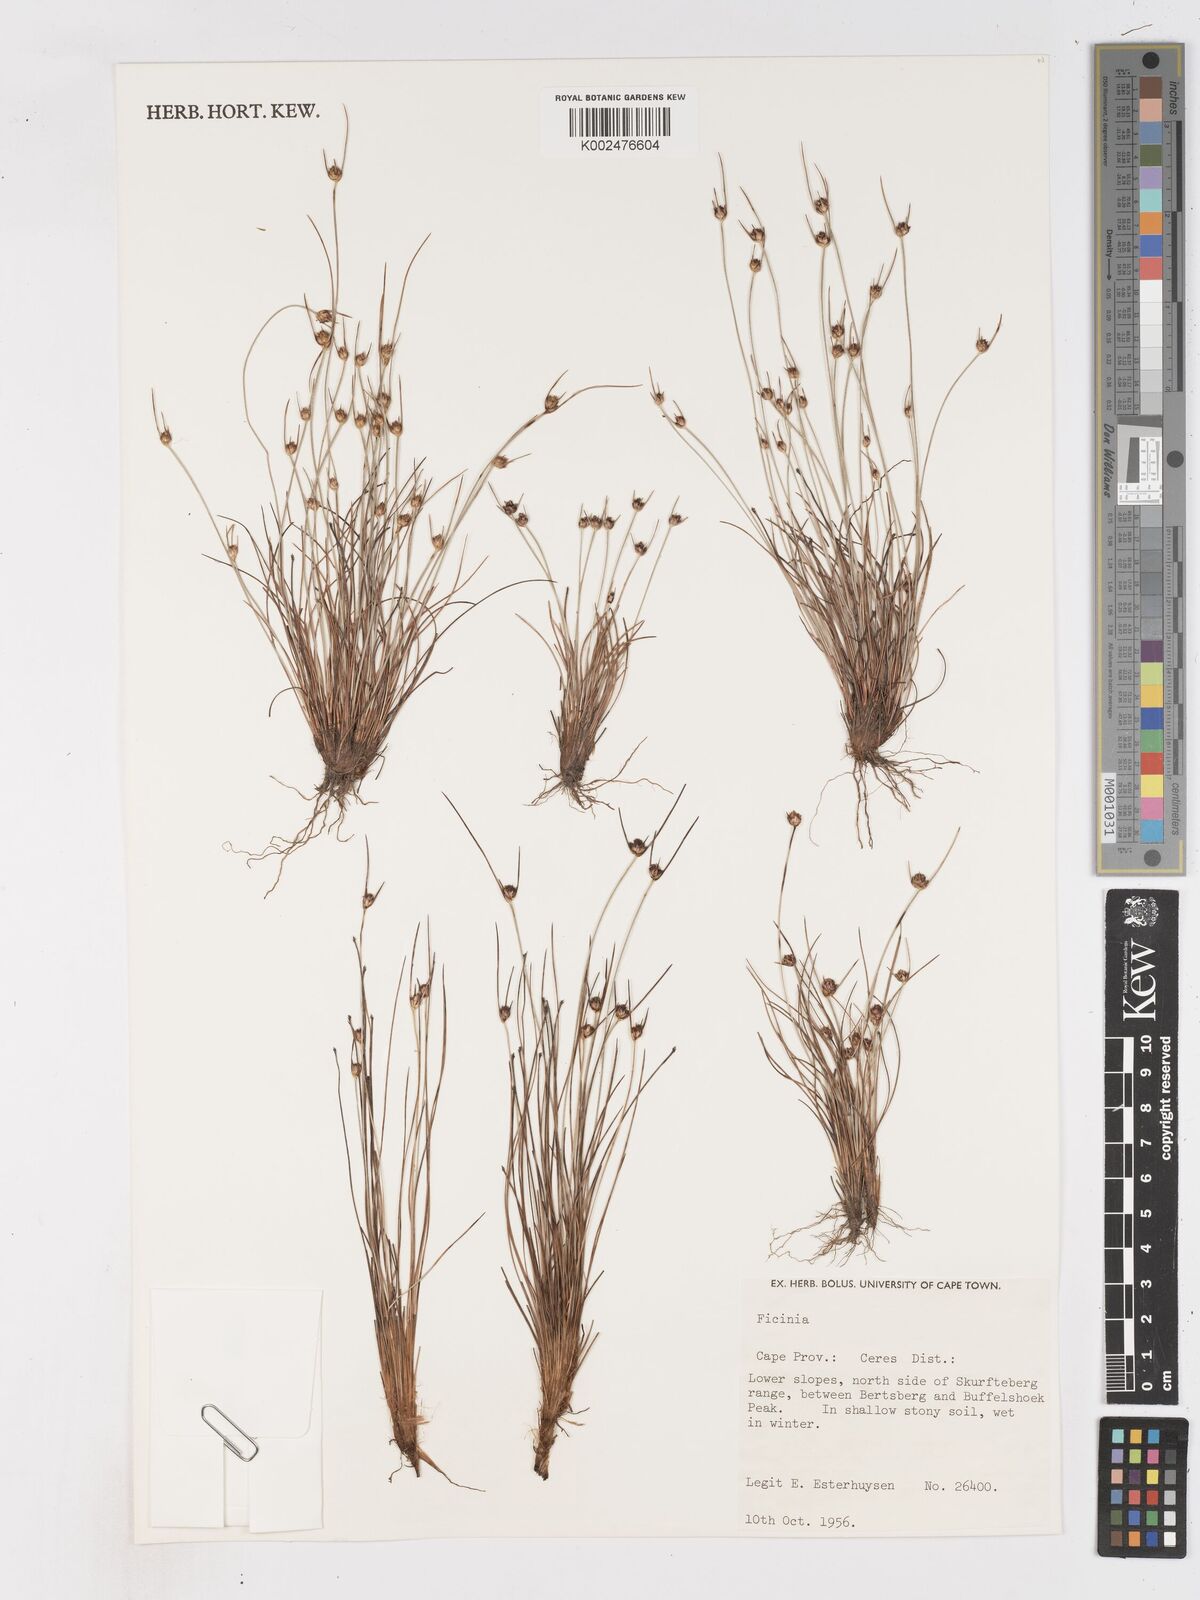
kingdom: Plantae
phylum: Tracheophyta
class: Liliopsida
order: Poales
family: Cyperaceae
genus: Ficinia
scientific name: Ficinia
